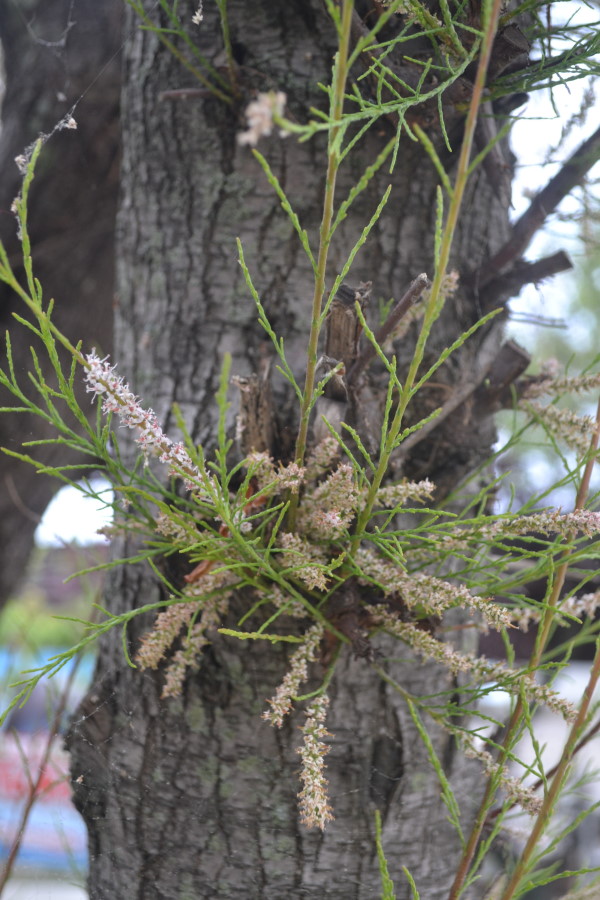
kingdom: Plantae
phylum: Tracheophyta
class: Magnoliopsida
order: Caryophyllales
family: Tamaricaceae
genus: Tamarix
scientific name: Tamarix ramosissima
